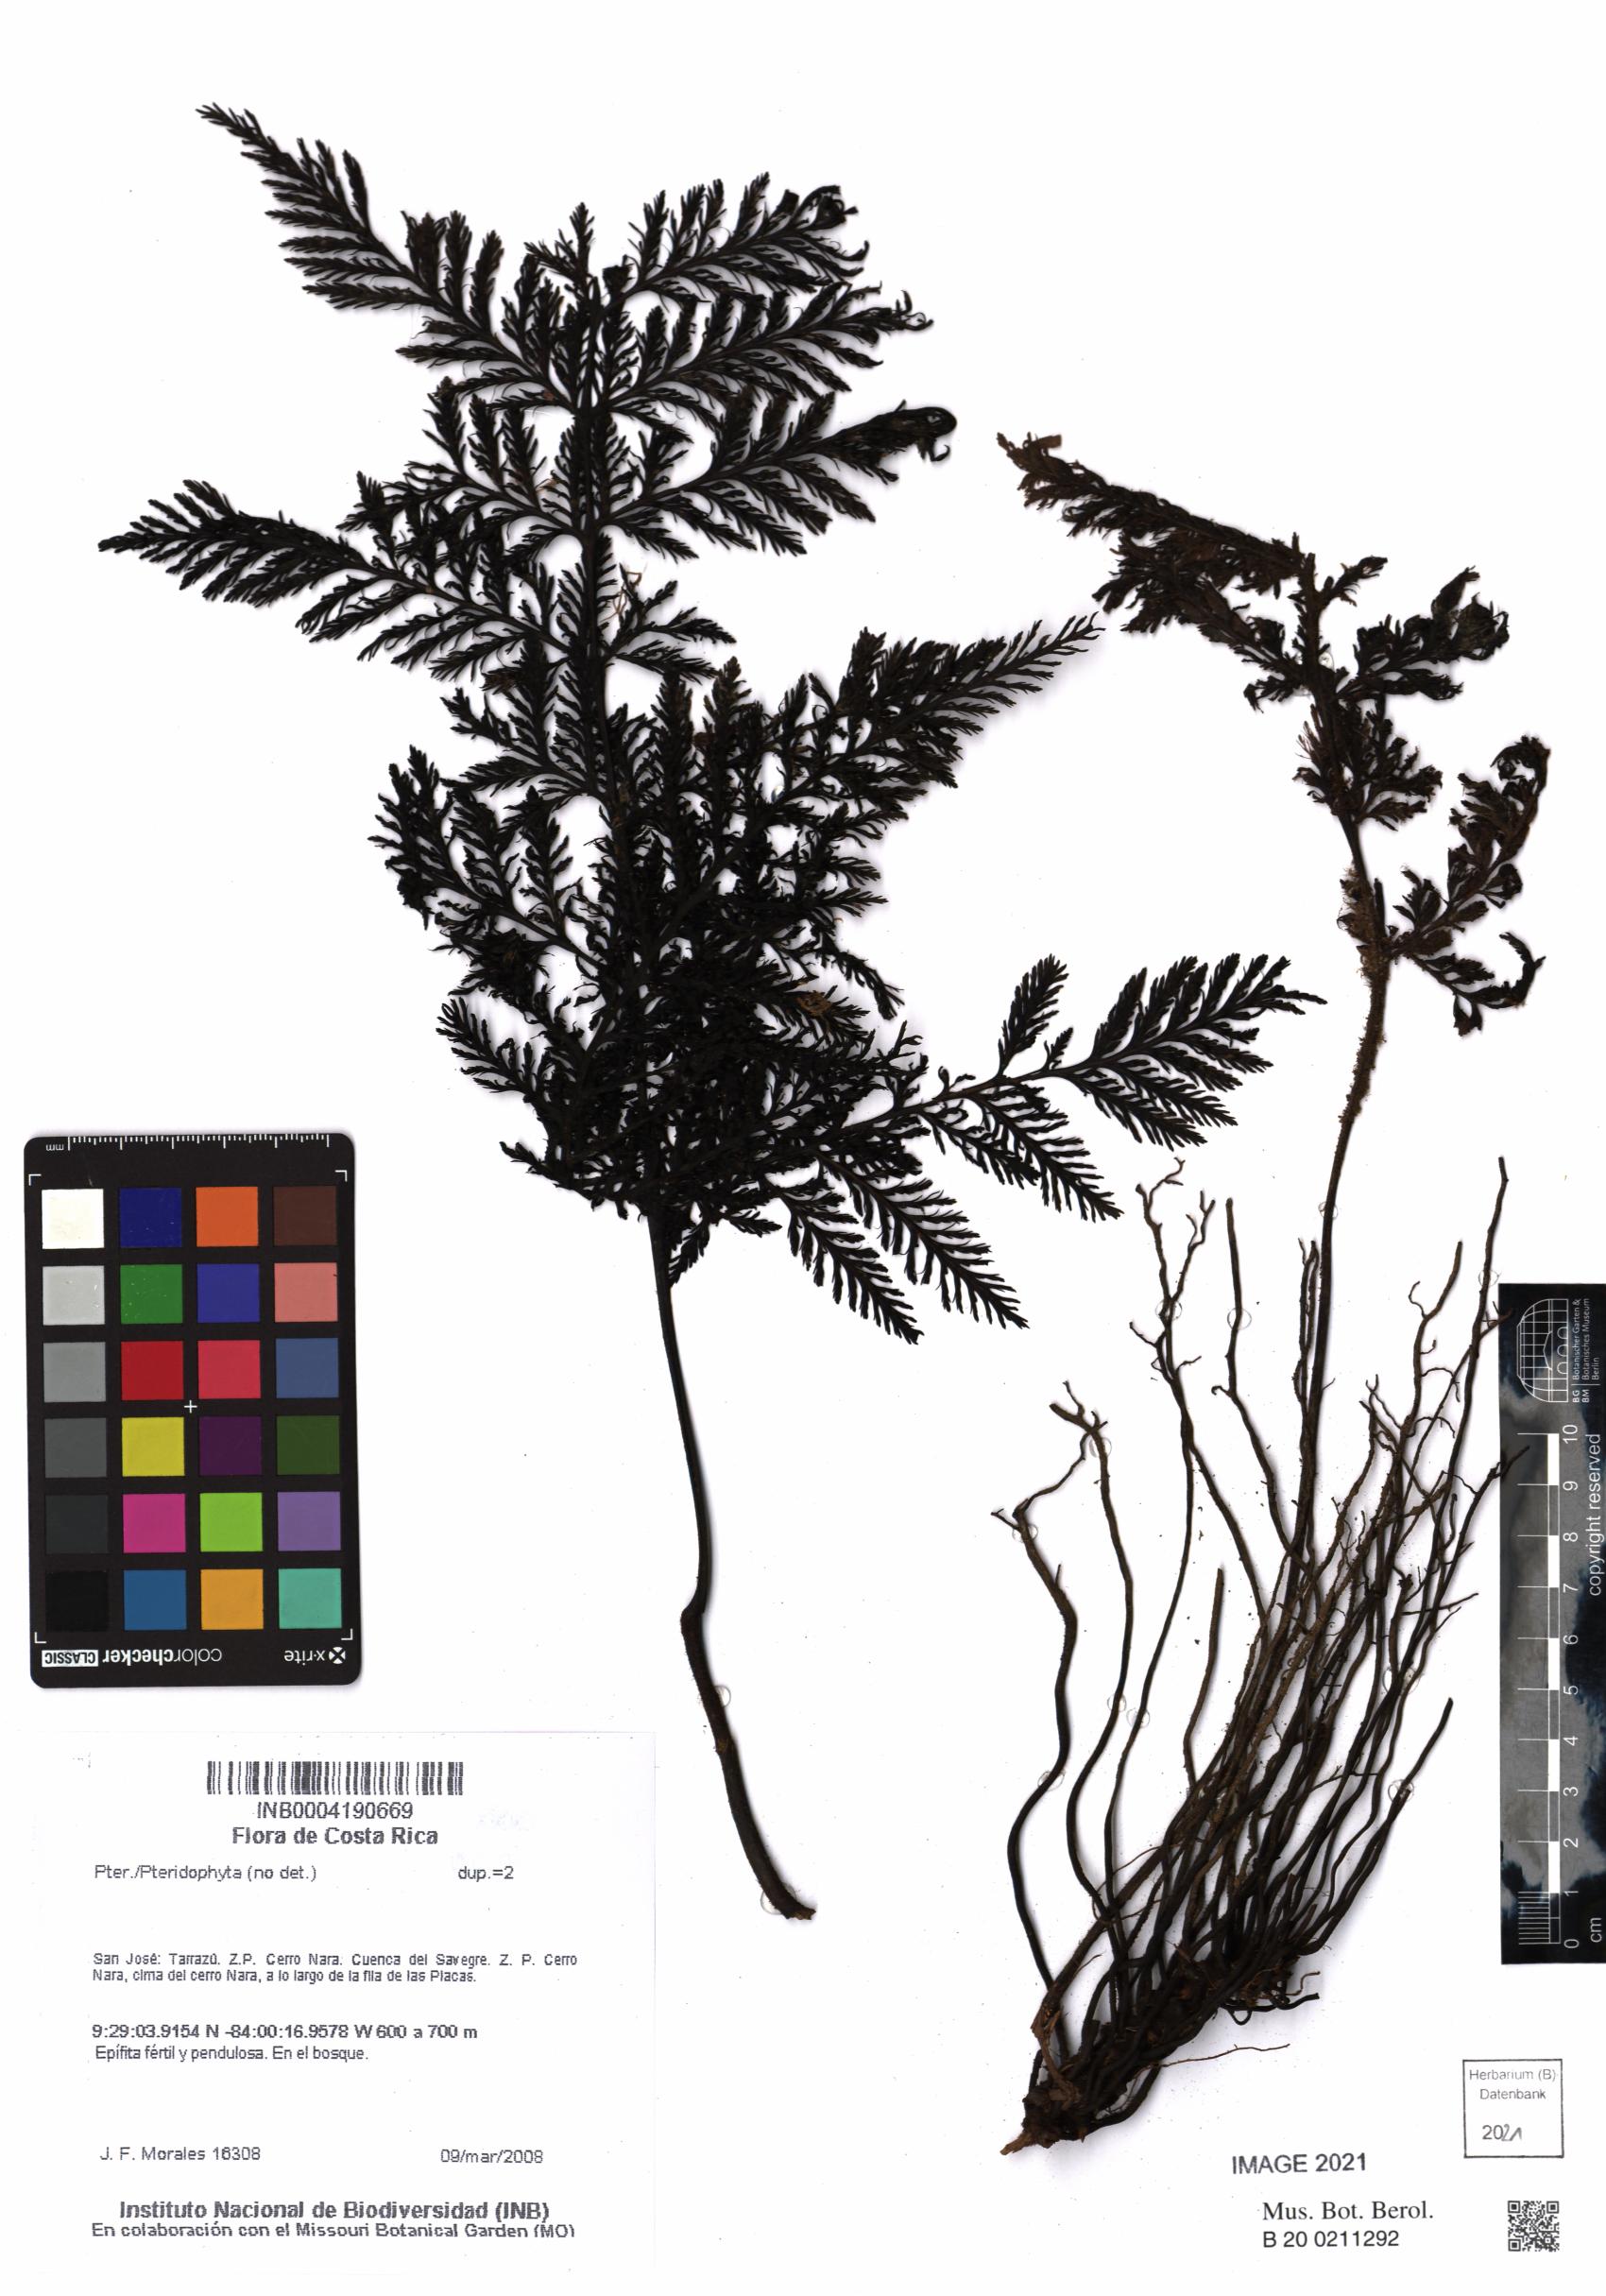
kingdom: Plantae
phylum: Tracheophyta
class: Polypodiopsida
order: Hymenophyllales
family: Hymenophyllaceae
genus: Trichomanes
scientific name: Trichomanes
